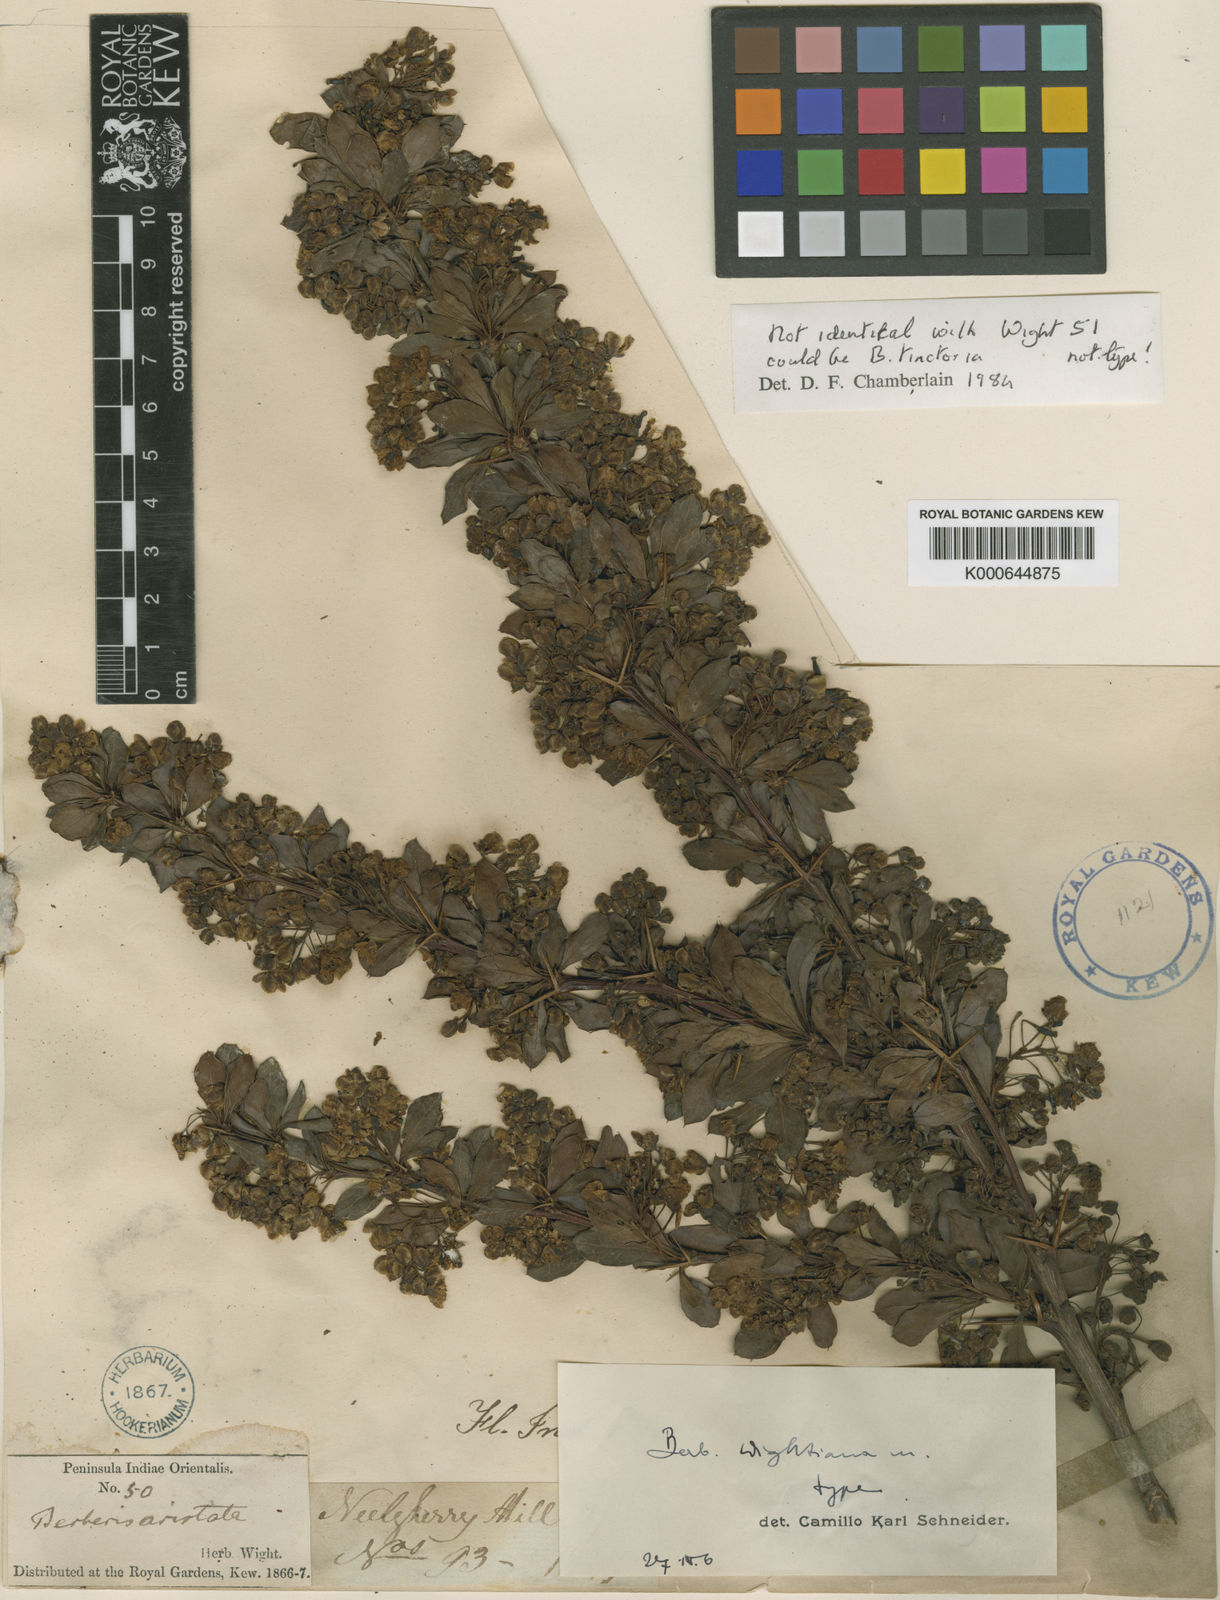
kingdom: Plantae
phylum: Tracheophyta
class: Magnoliopsida
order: Ranunculales
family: Berberidaceae
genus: Berberis
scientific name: Berberis wightiana
